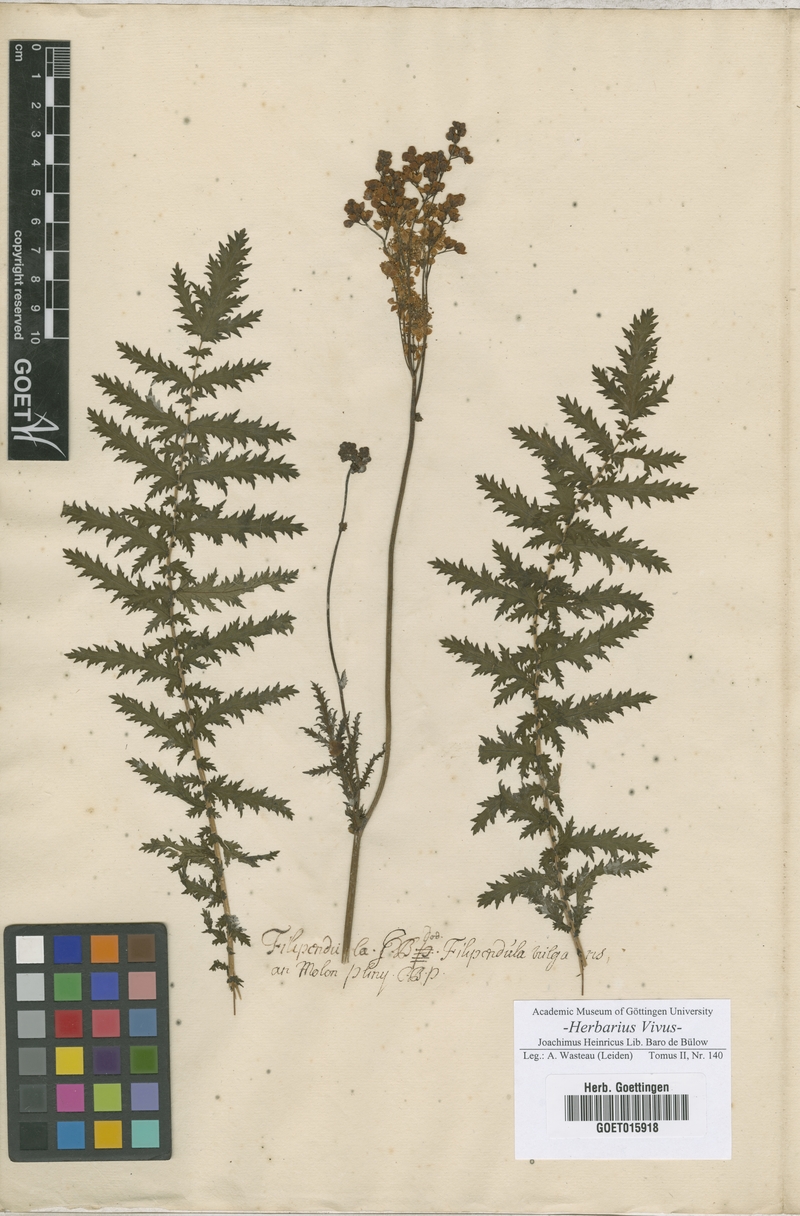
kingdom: Plantae
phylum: Tracheophyta
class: Magnoliopsida
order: Rosales
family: Rosaceae
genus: Filipendula
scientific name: Filipendula
